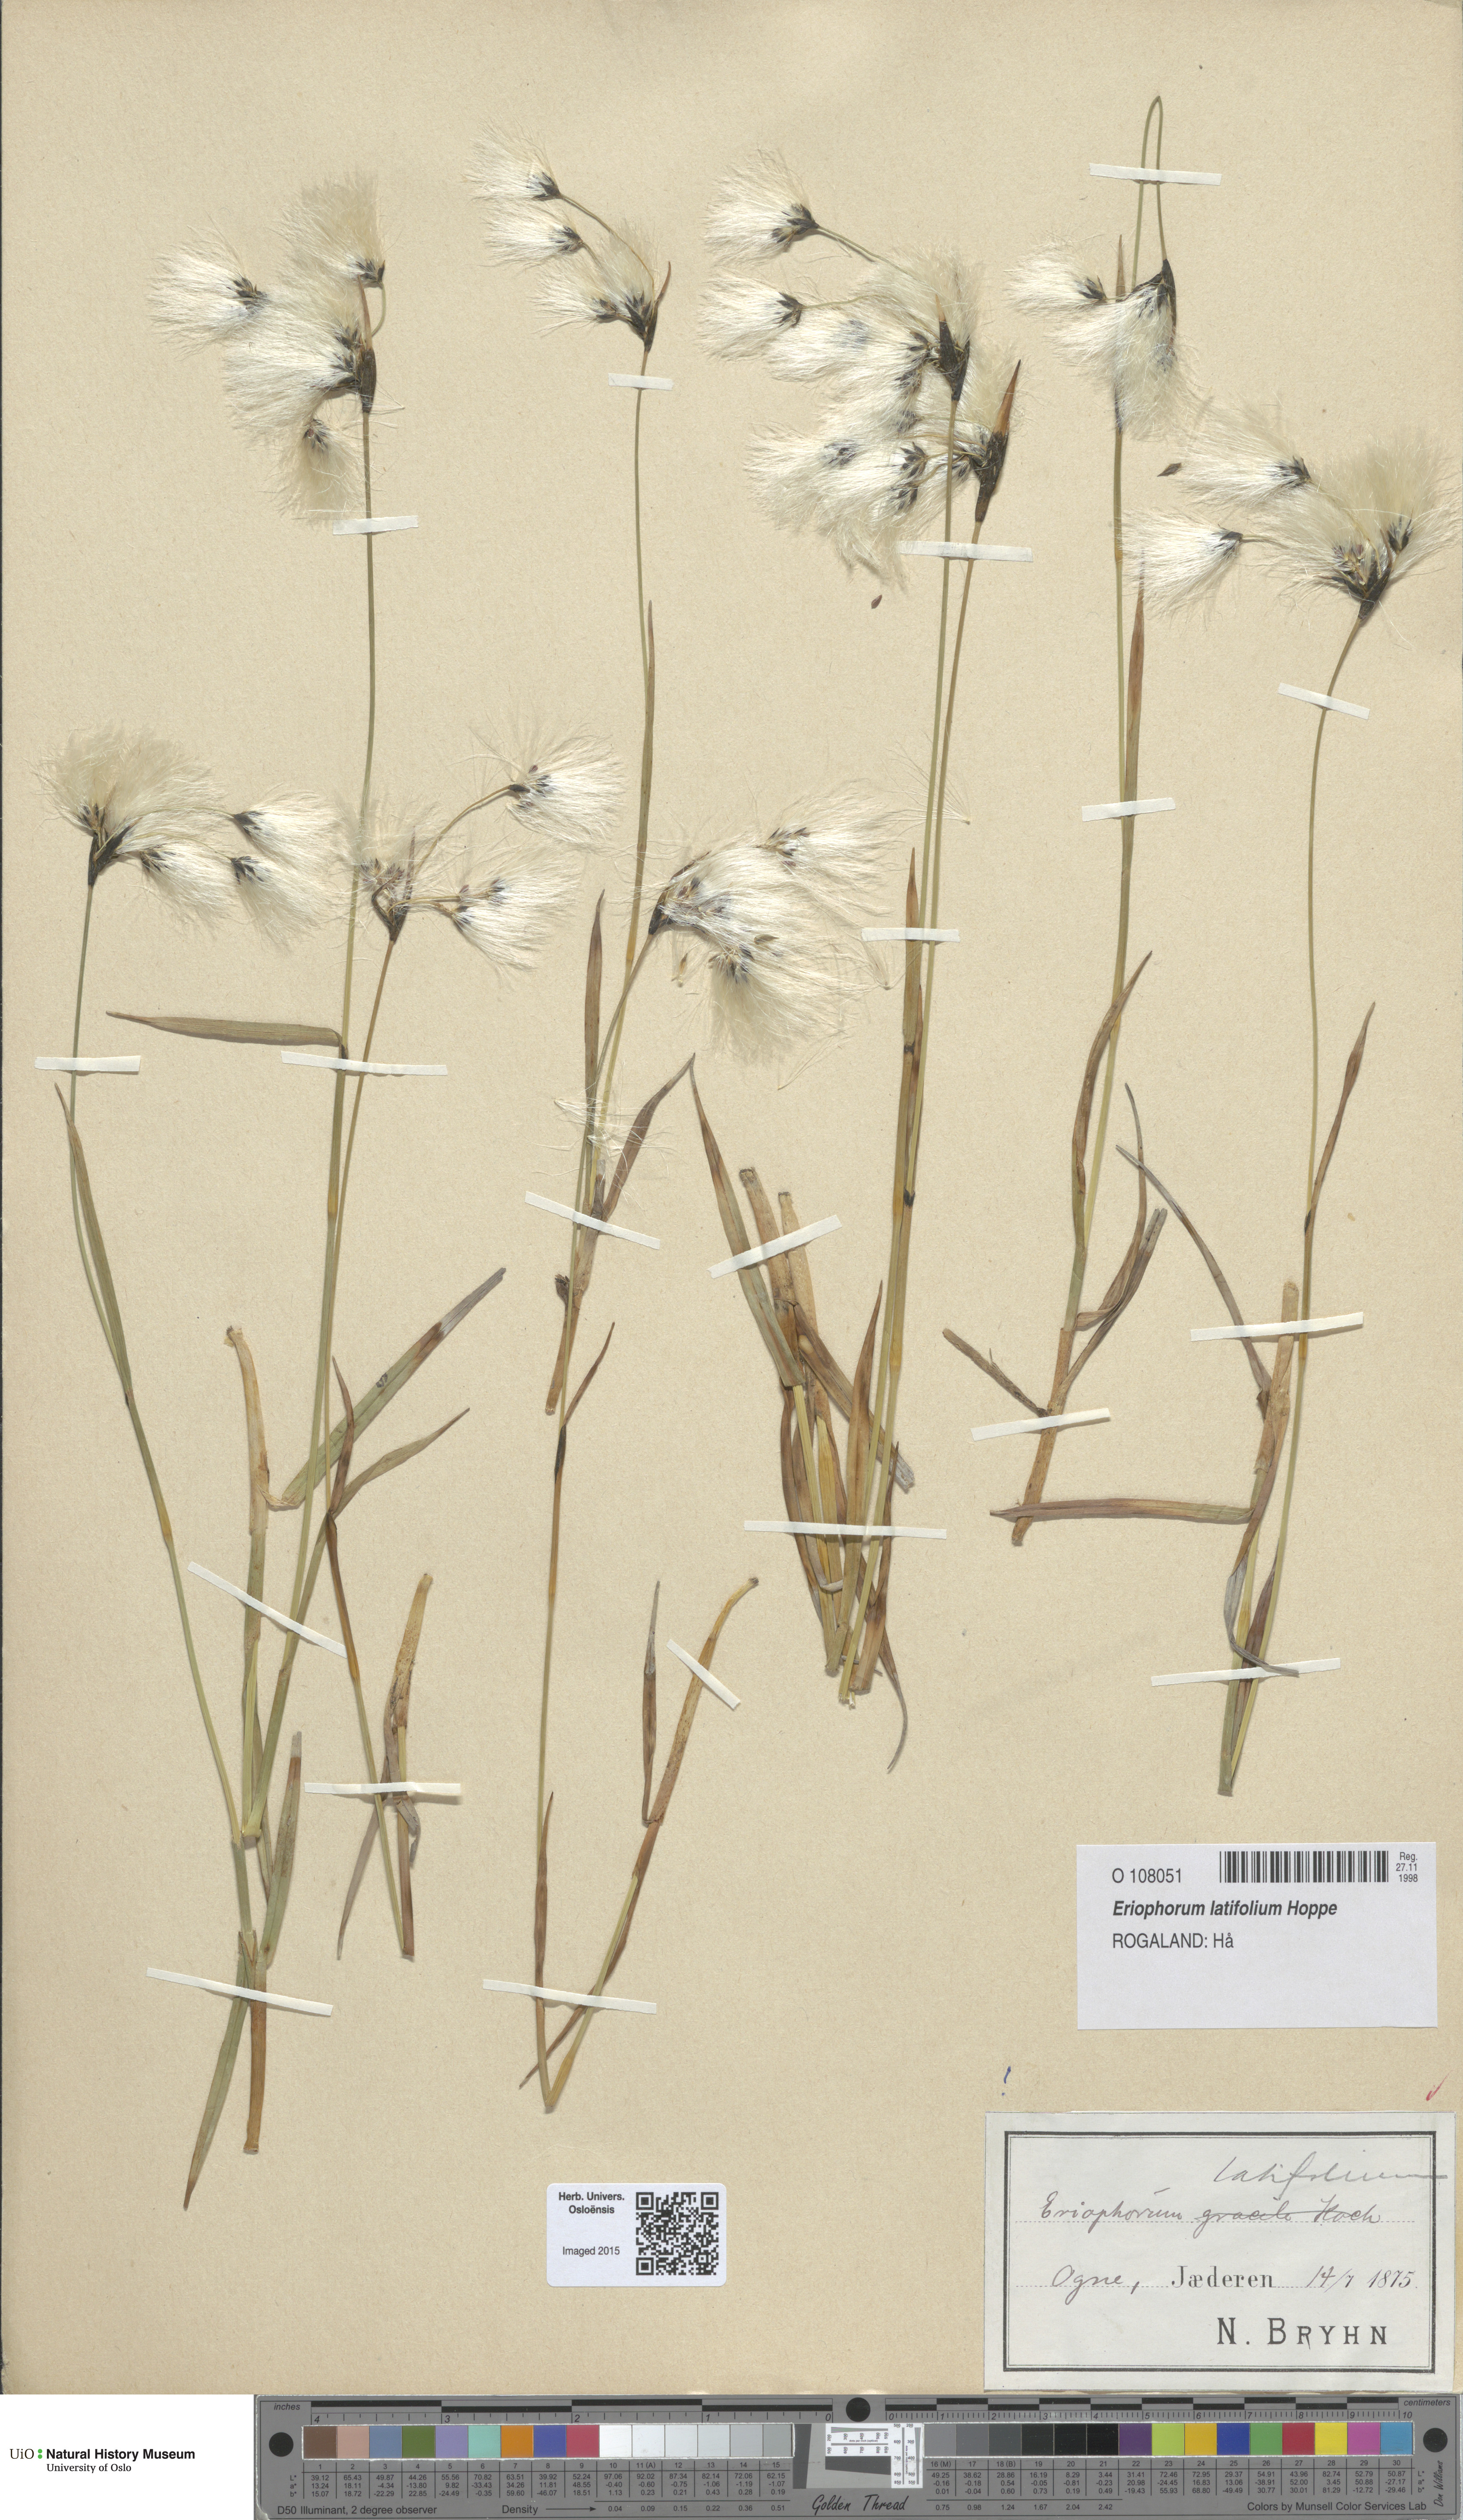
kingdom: Plantae
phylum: Tracheophyta
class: Liliopsida
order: Poales
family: Cyperaceae
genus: Eriophorum
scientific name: Eriophorum latifolium
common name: Broad-leaved cottongrass
